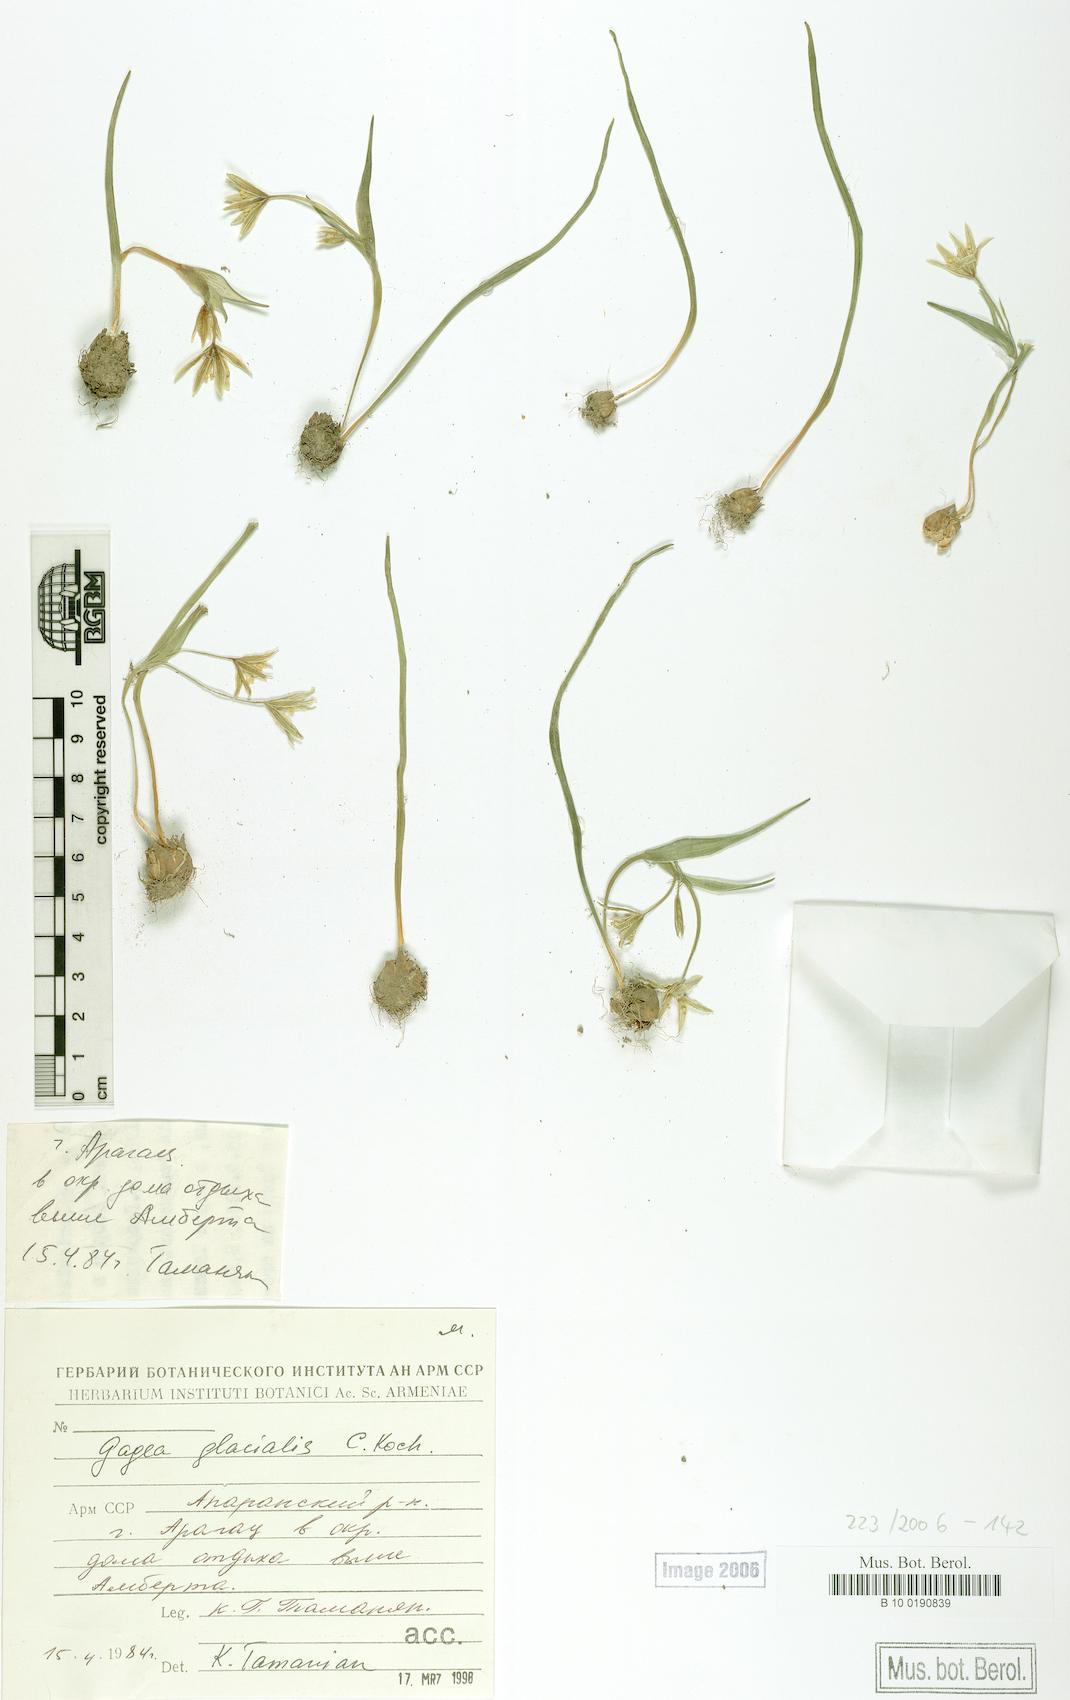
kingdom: Plantae
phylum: Tracheophyta
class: Liliopsida
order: Liliales
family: Liliaceae
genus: Gagea
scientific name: Gagea glacialis
